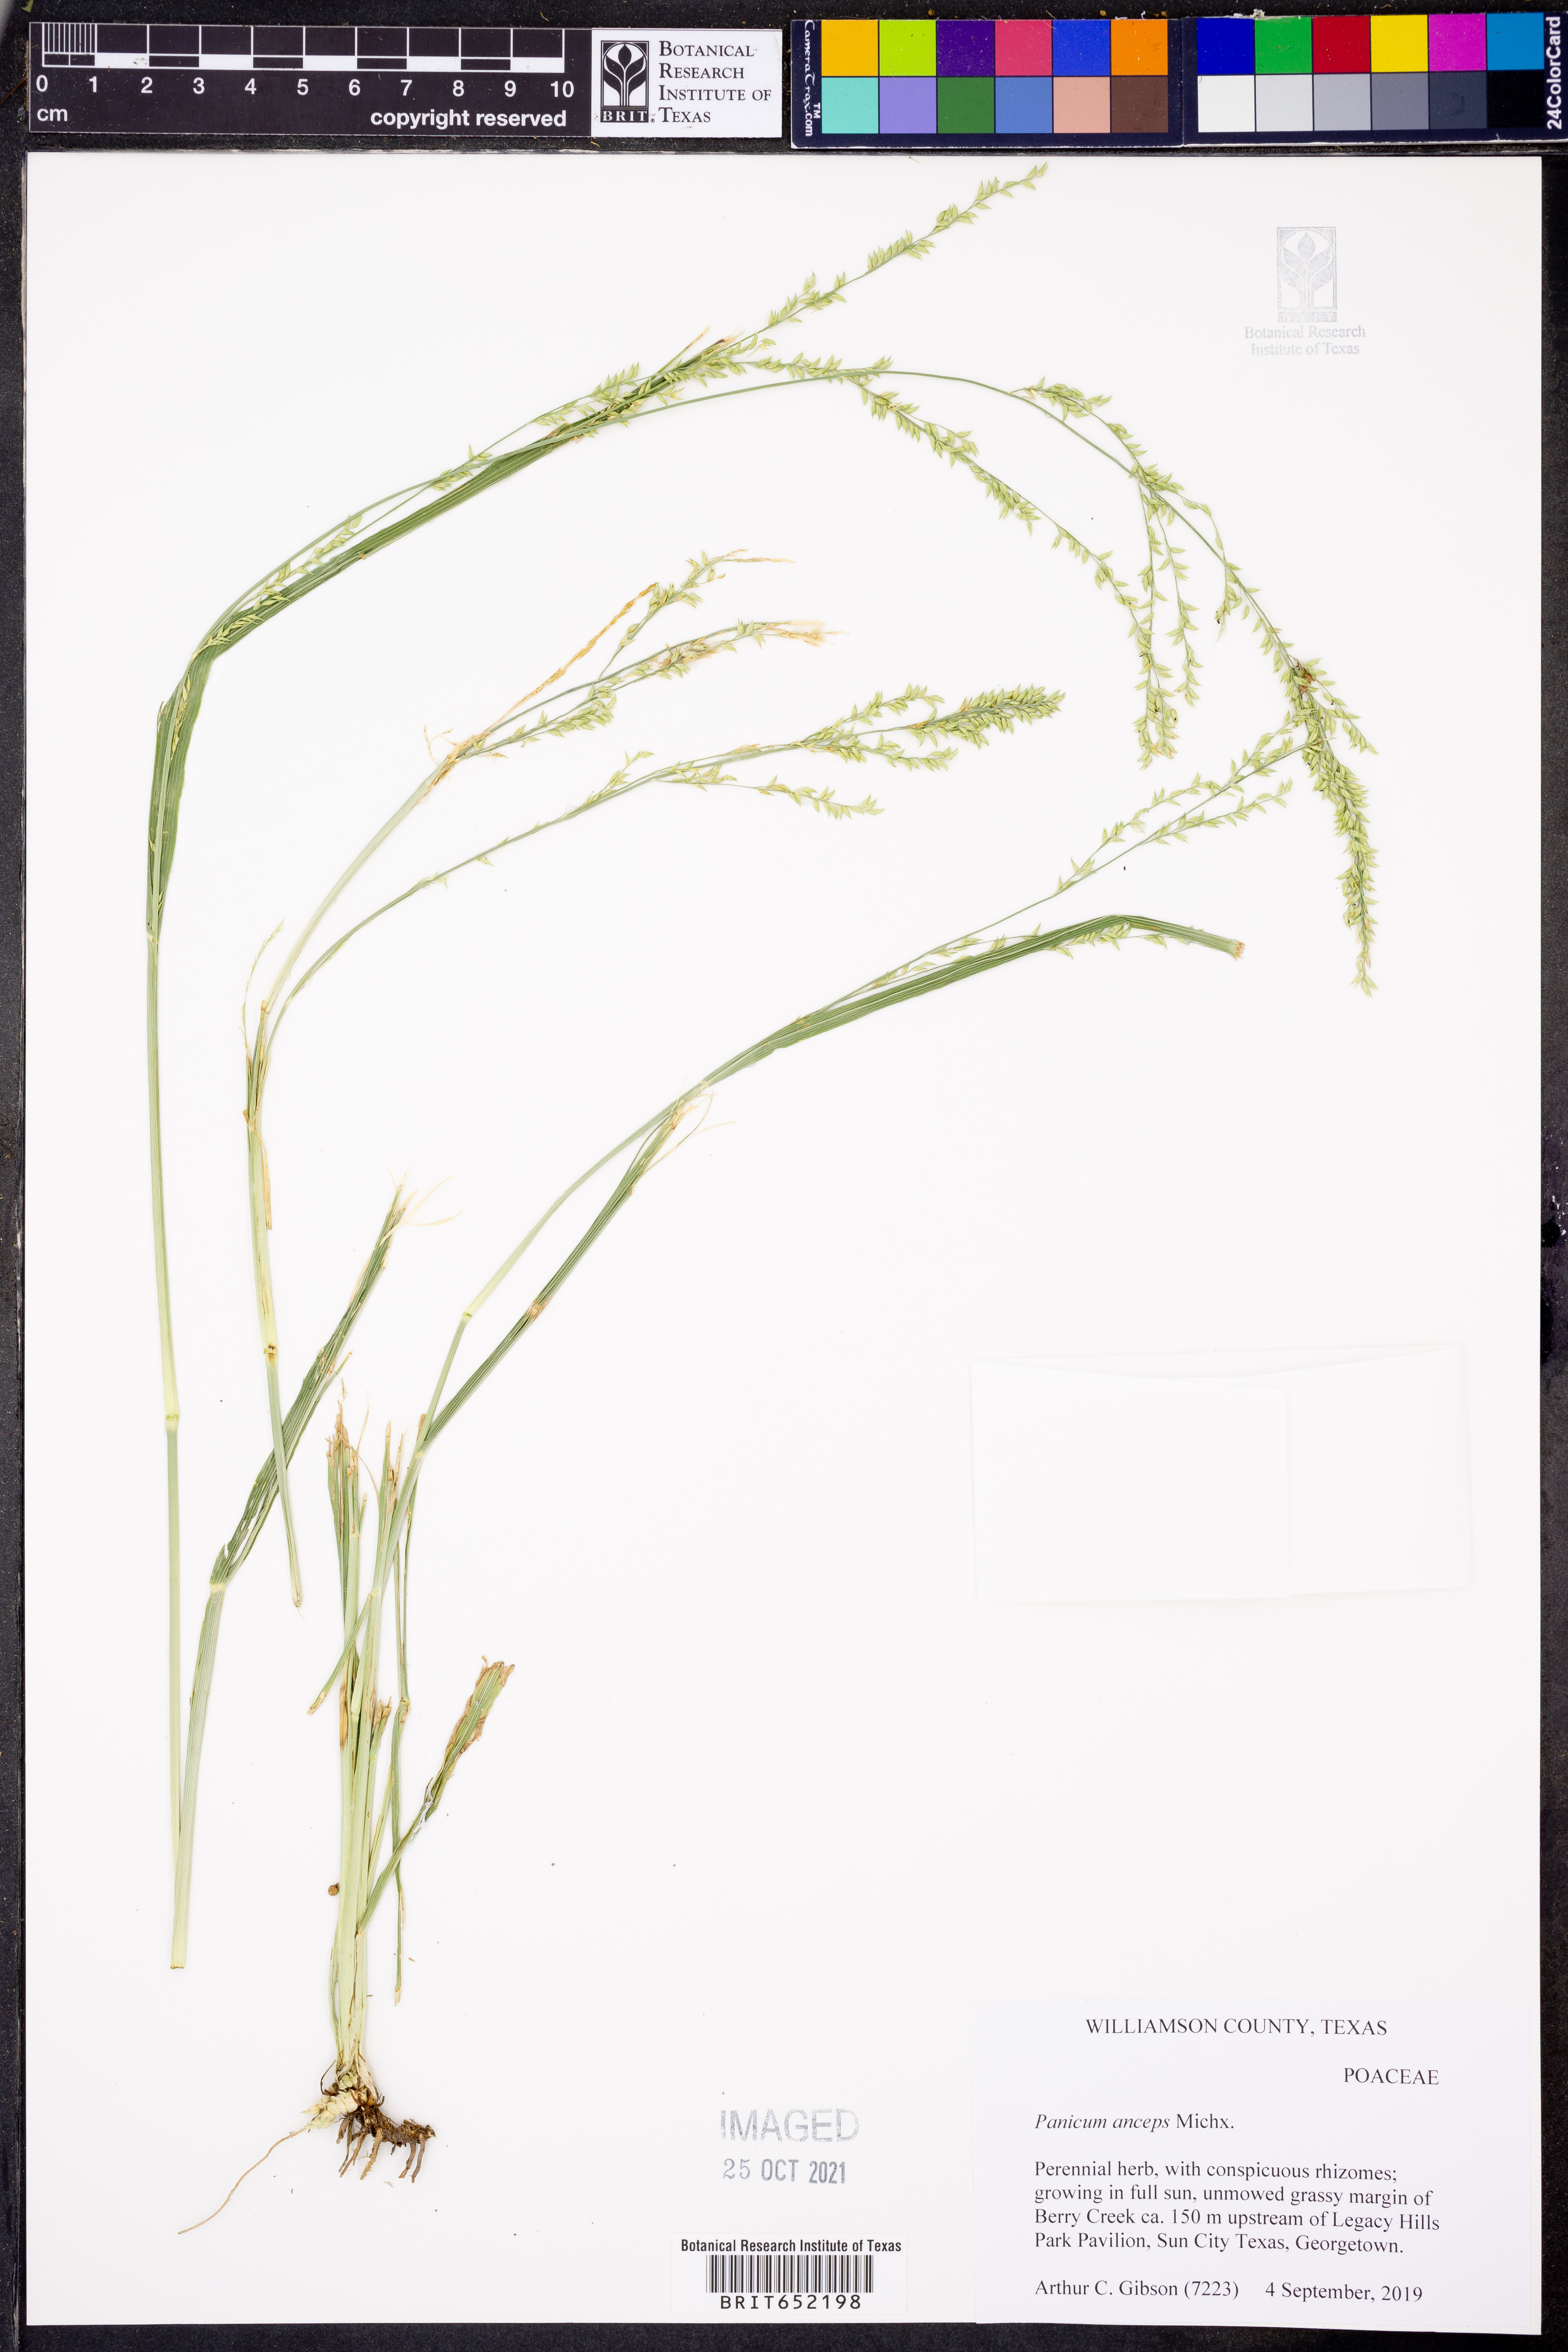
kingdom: Plantae
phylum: Tracheophyta
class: Liliopsida
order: Poales
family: Poaceae
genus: Coleataenia
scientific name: Coleataenia anceps
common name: Beaked panic grass
